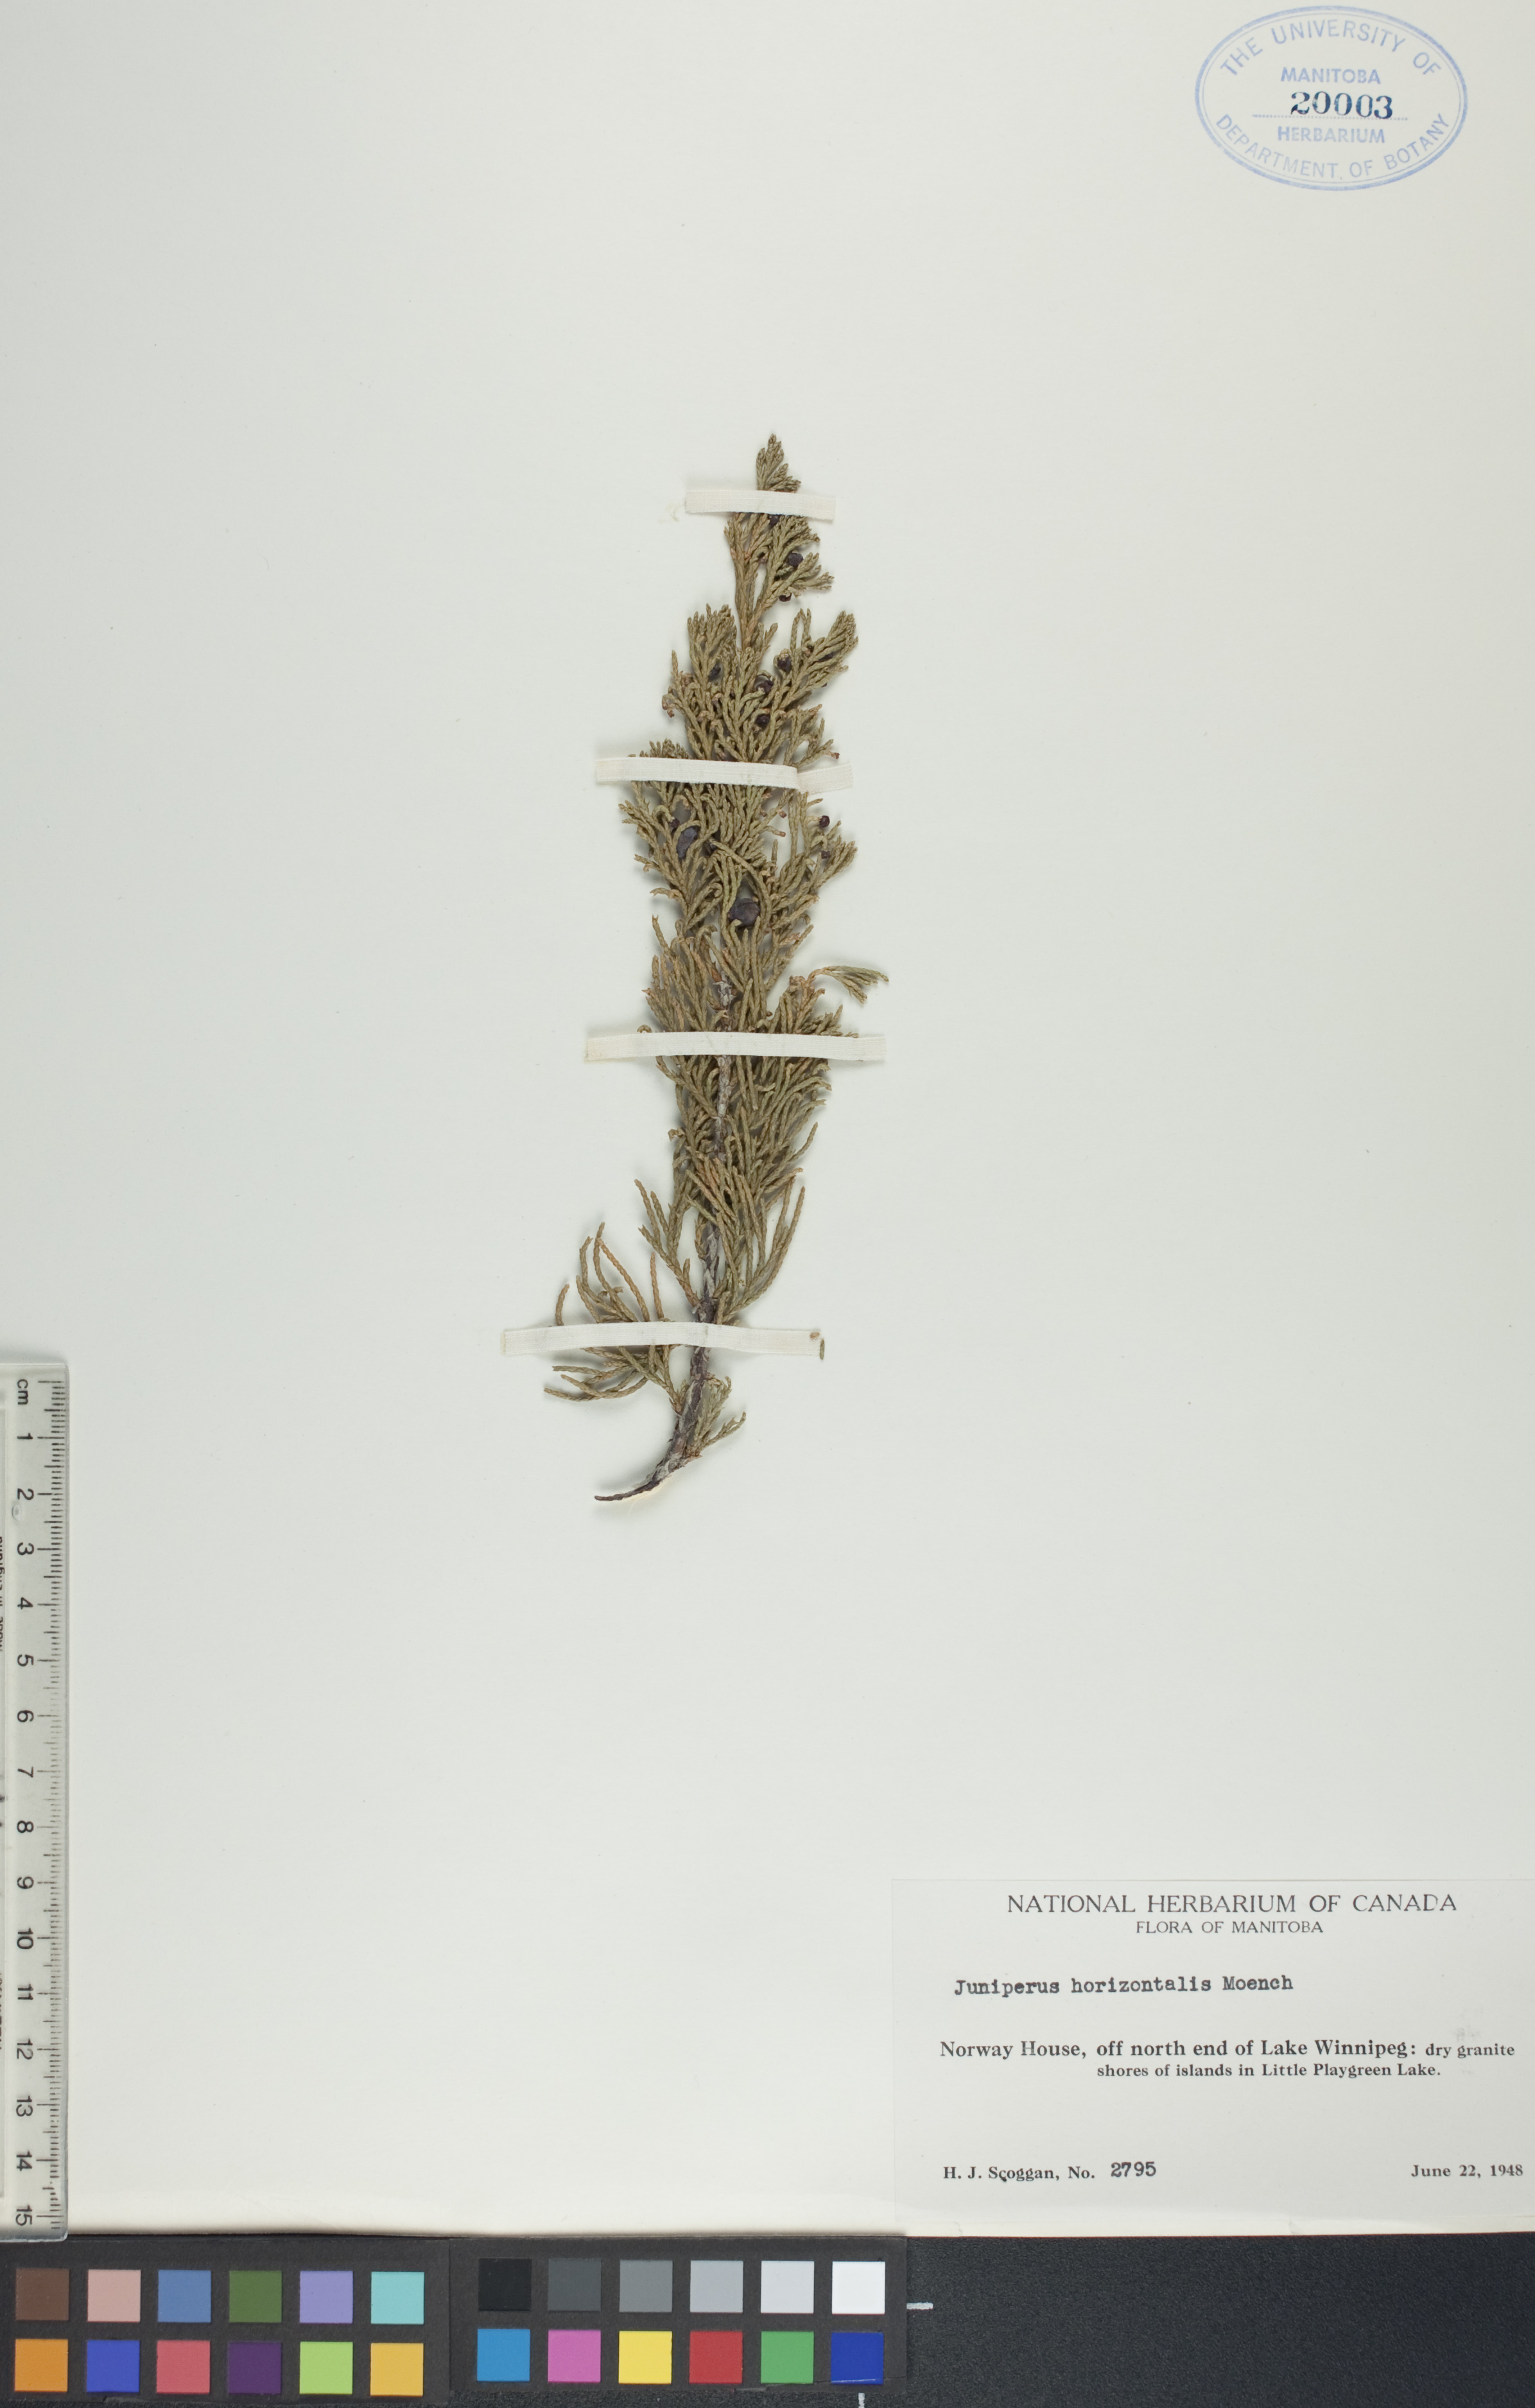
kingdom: Plantae
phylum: Tracheophyta
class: Pinopsida
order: Pinales
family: Cupressaceae
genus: Juniperus
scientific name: Juniperus horizontalis
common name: Creeping juniper
